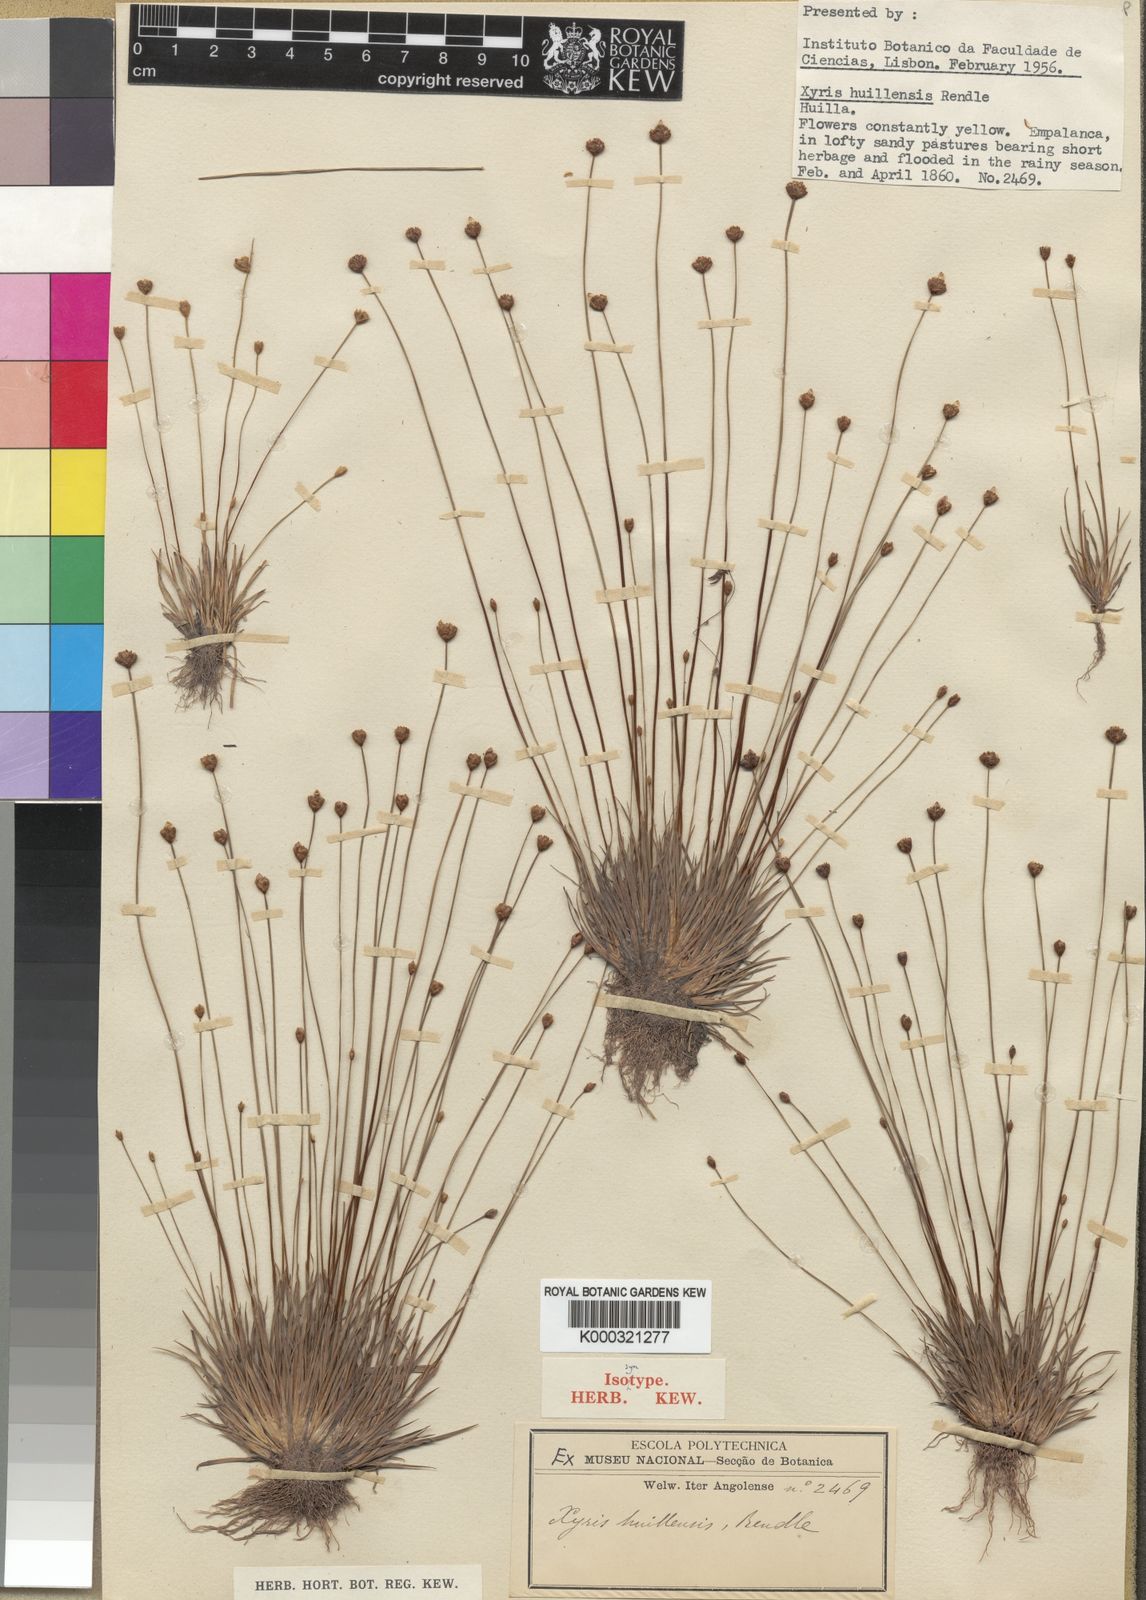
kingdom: Plantae
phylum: Tracheophyta
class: Liliopsida
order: Poales
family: Xyridaceae
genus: Xyris
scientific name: Xyris huillensis
